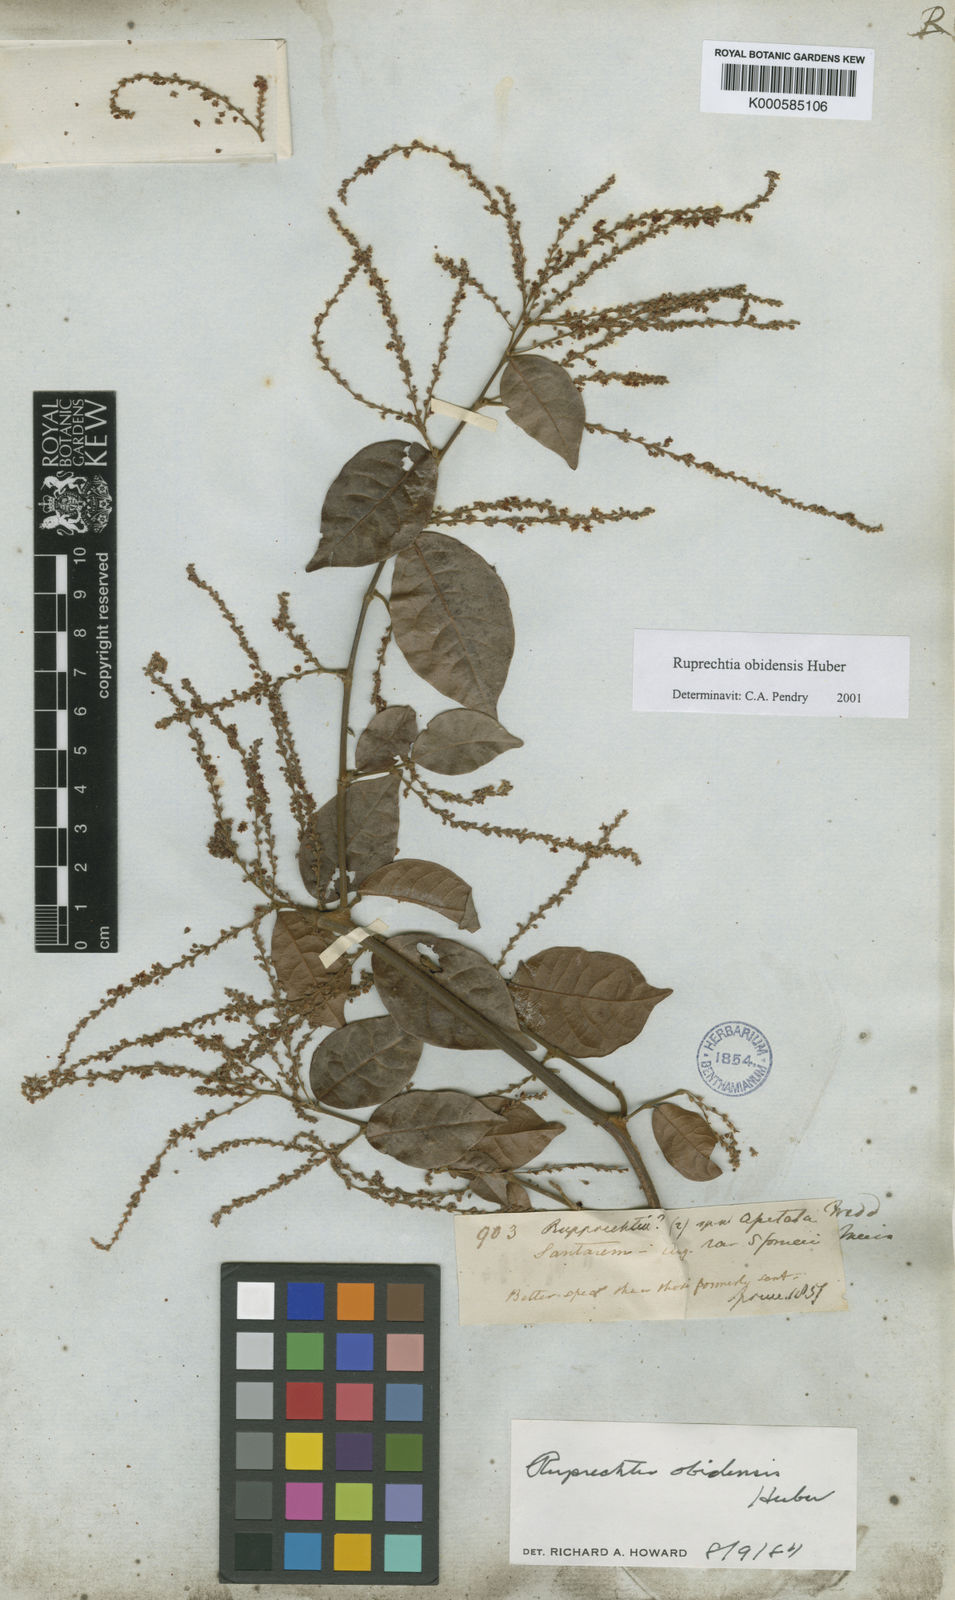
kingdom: Plantae
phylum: Tracheophyta
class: Magnoliopsida
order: Caryophyllales
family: Polygonaceae
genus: Ruprechtia
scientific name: Ruprechtia scandens
